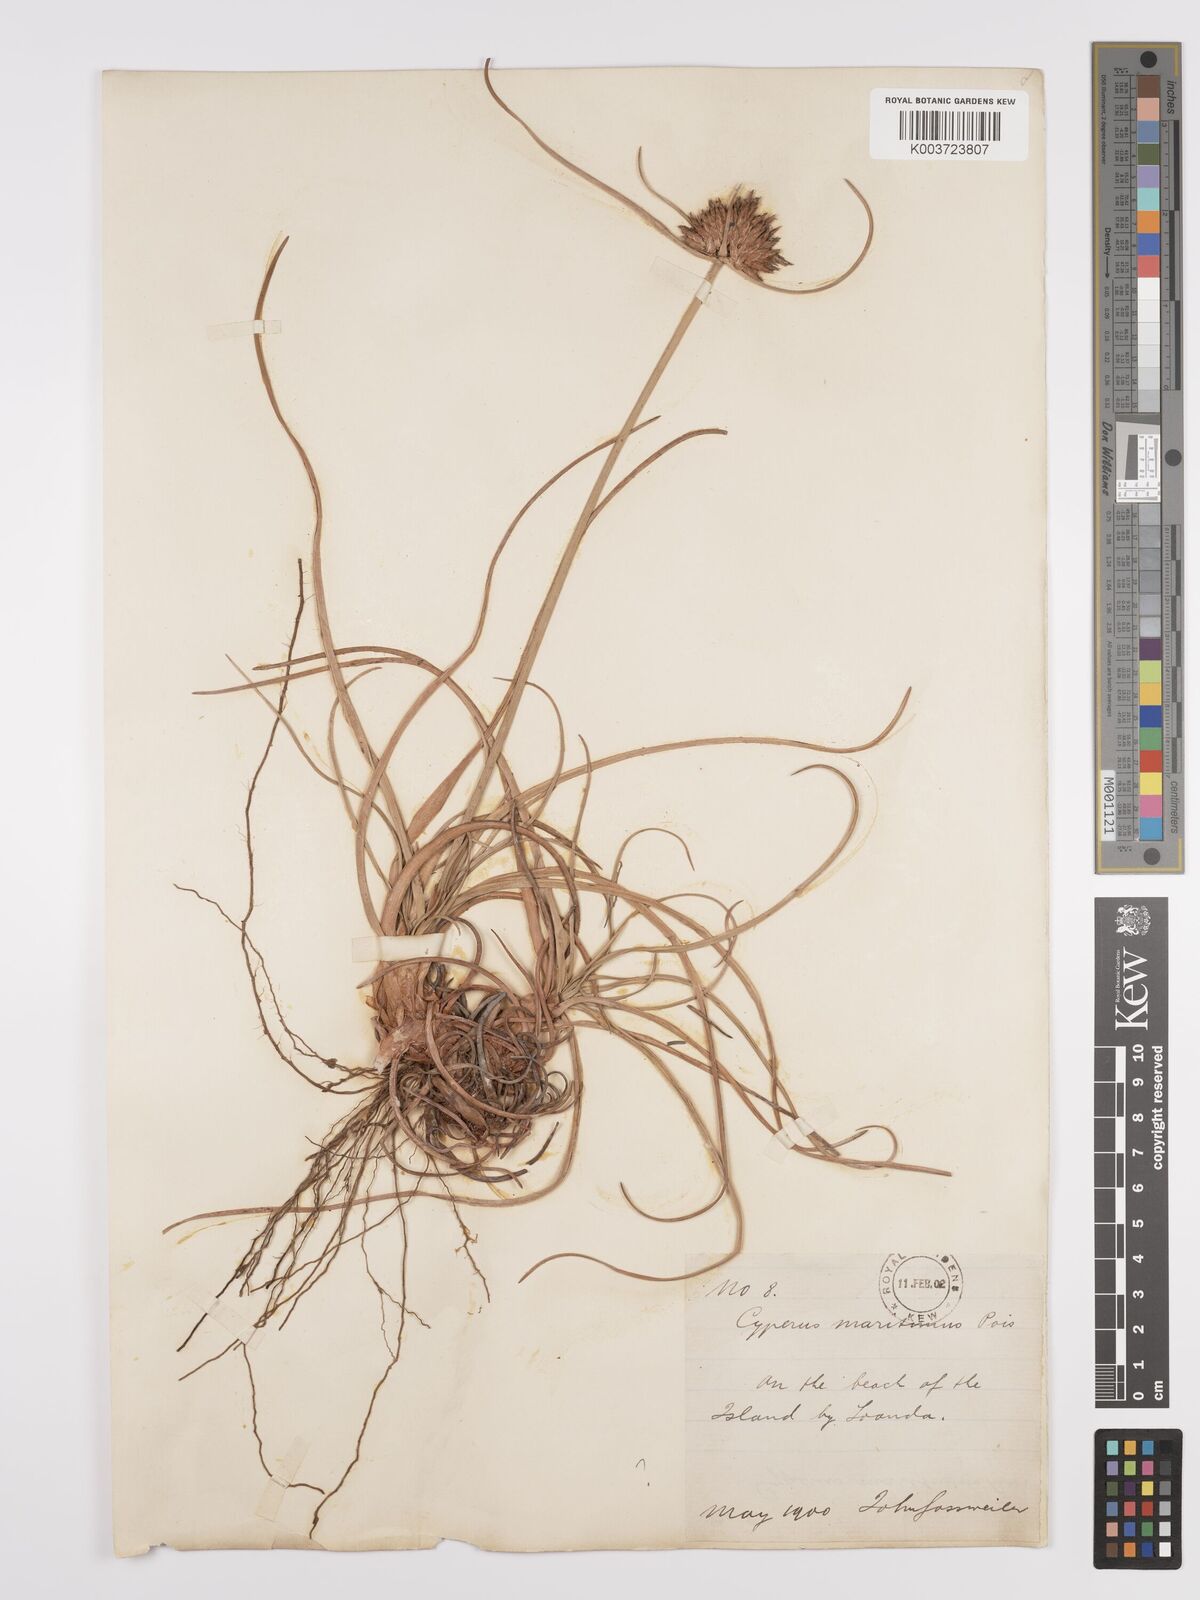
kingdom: Plantae
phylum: Tracheophyta
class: Liliopsida
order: Poales
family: Cyperaceae
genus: Cyperus
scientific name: Cyperus crassipes
